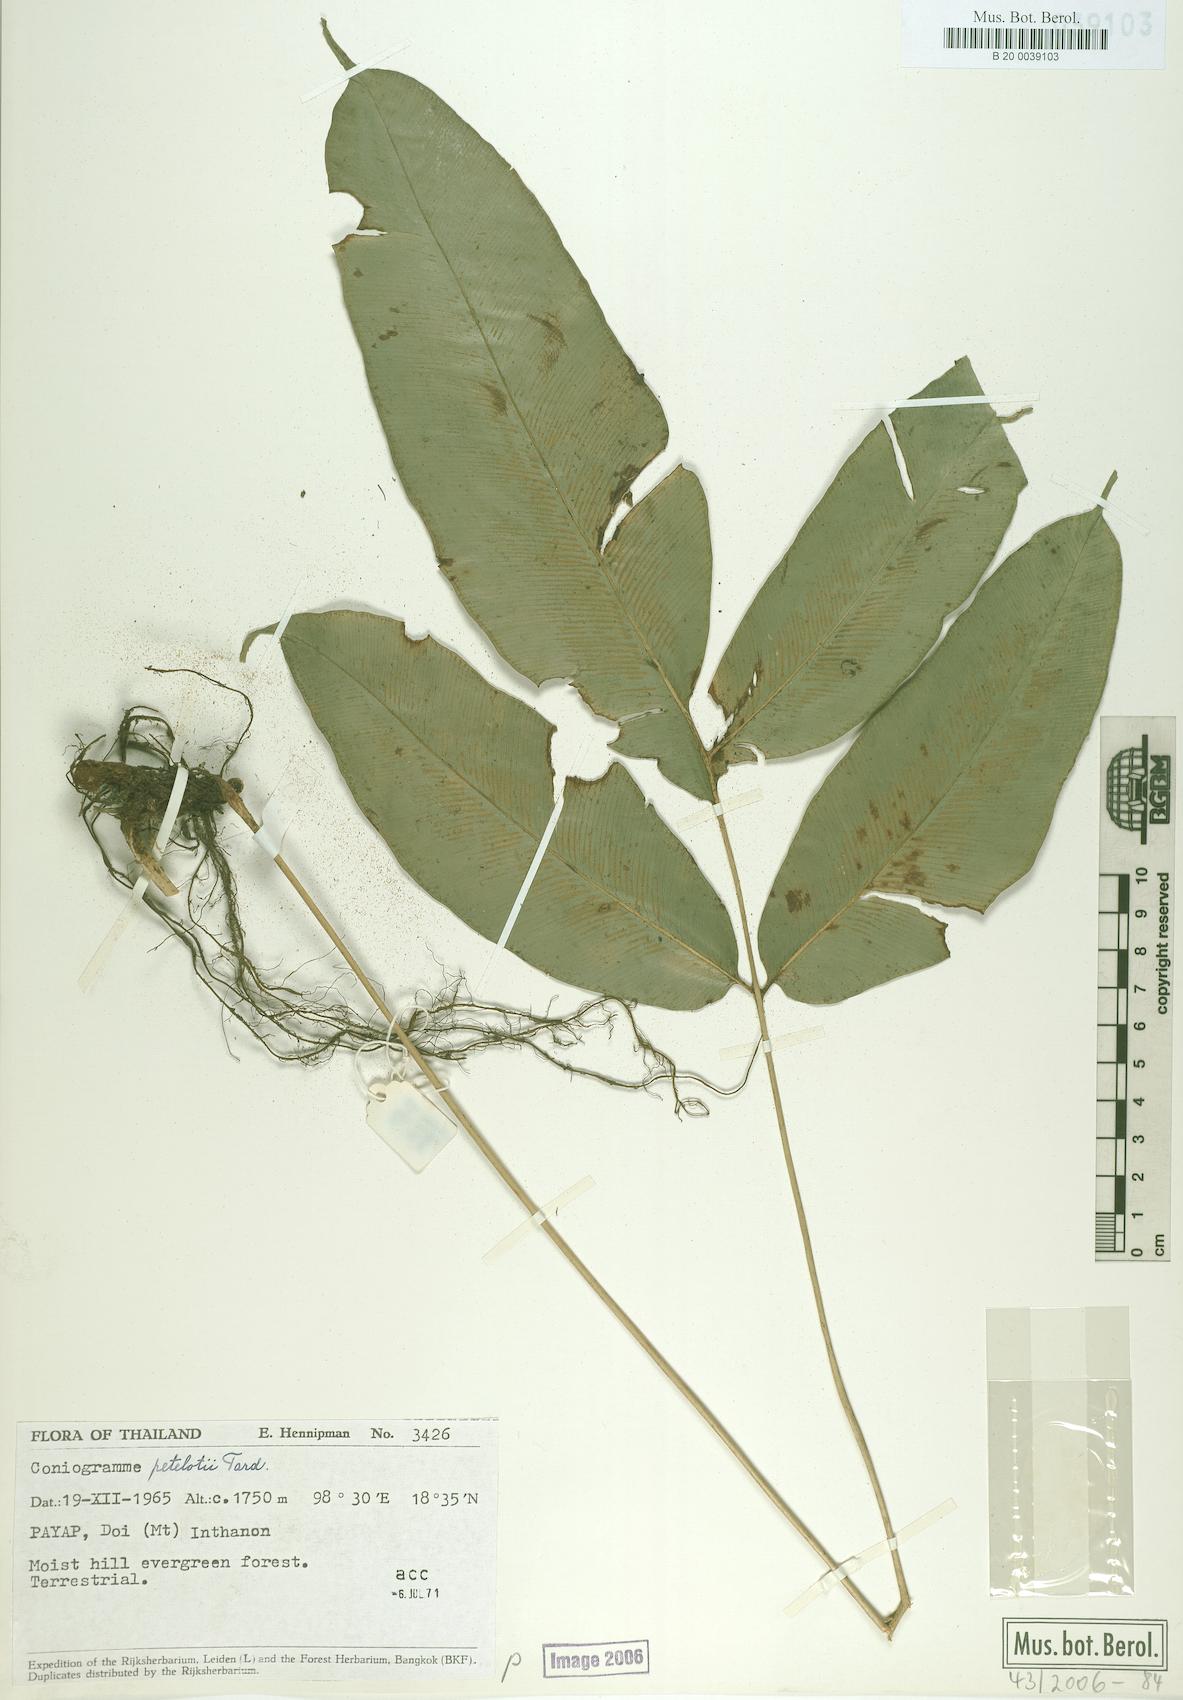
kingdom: Plantae
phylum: Tracheophyta
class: Polypodiopsida
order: Polypodiales
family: Pteridaceae
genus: Coniogramme
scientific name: Coniogramme fraxinea
